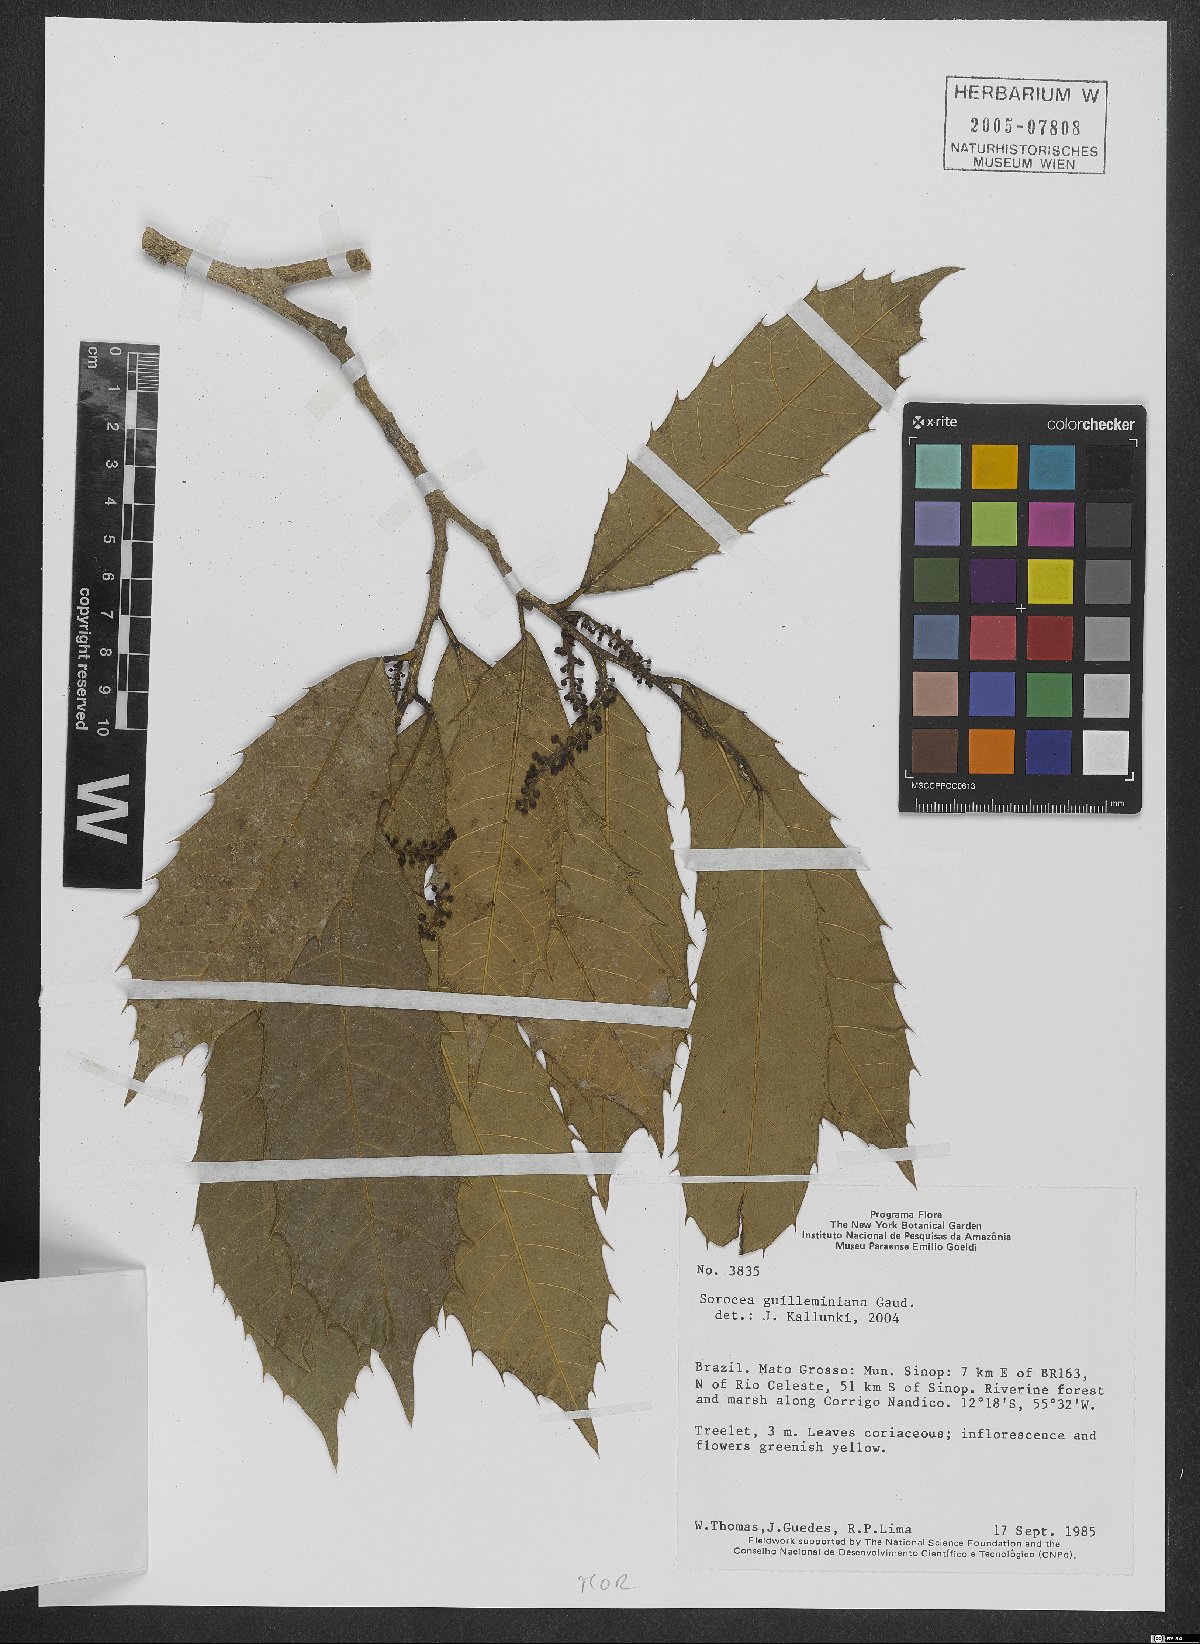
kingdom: Plantae
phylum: Tracheophyta
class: Magnoliopsida
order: Rosales
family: Moraceae
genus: Sorocea
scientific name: Sorocea guilleminiana
